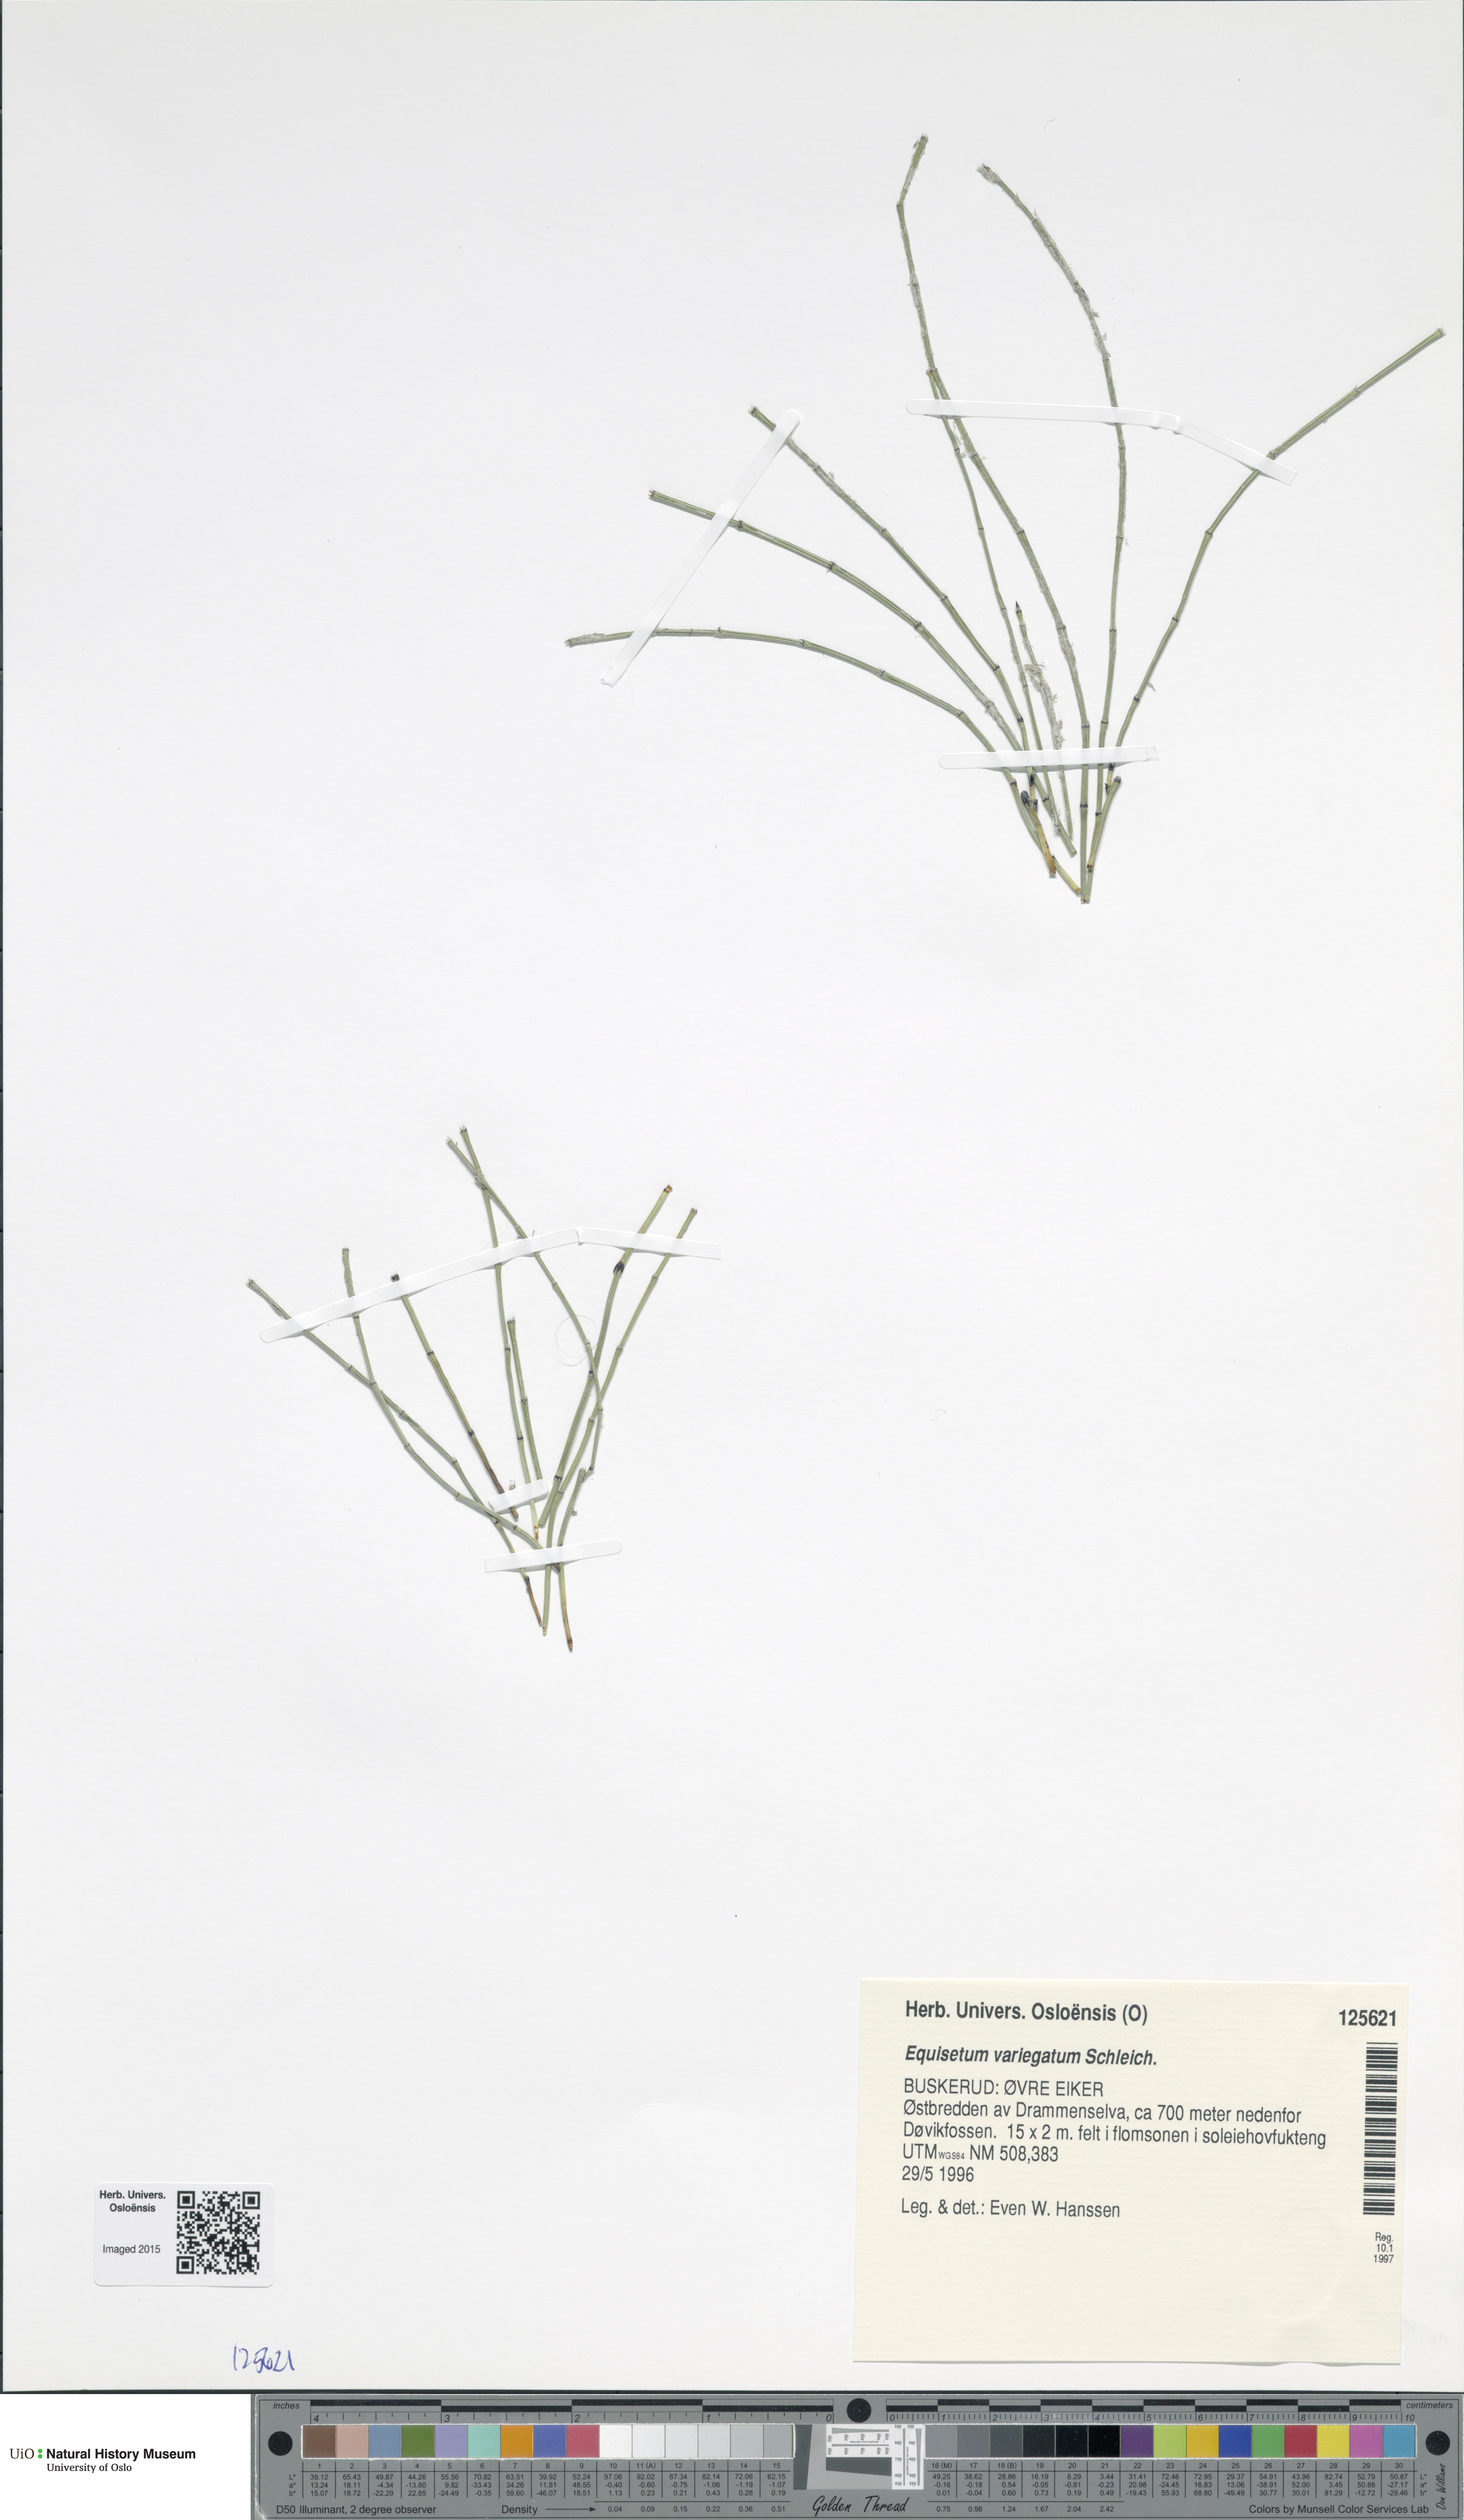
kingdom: Plantae
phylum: Tracheophyta
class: Polypodiopsida
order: Equisetales
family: Equisetaceae
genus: Equisetum
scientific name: Equisetum variegatum
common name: Variegated horsetail
